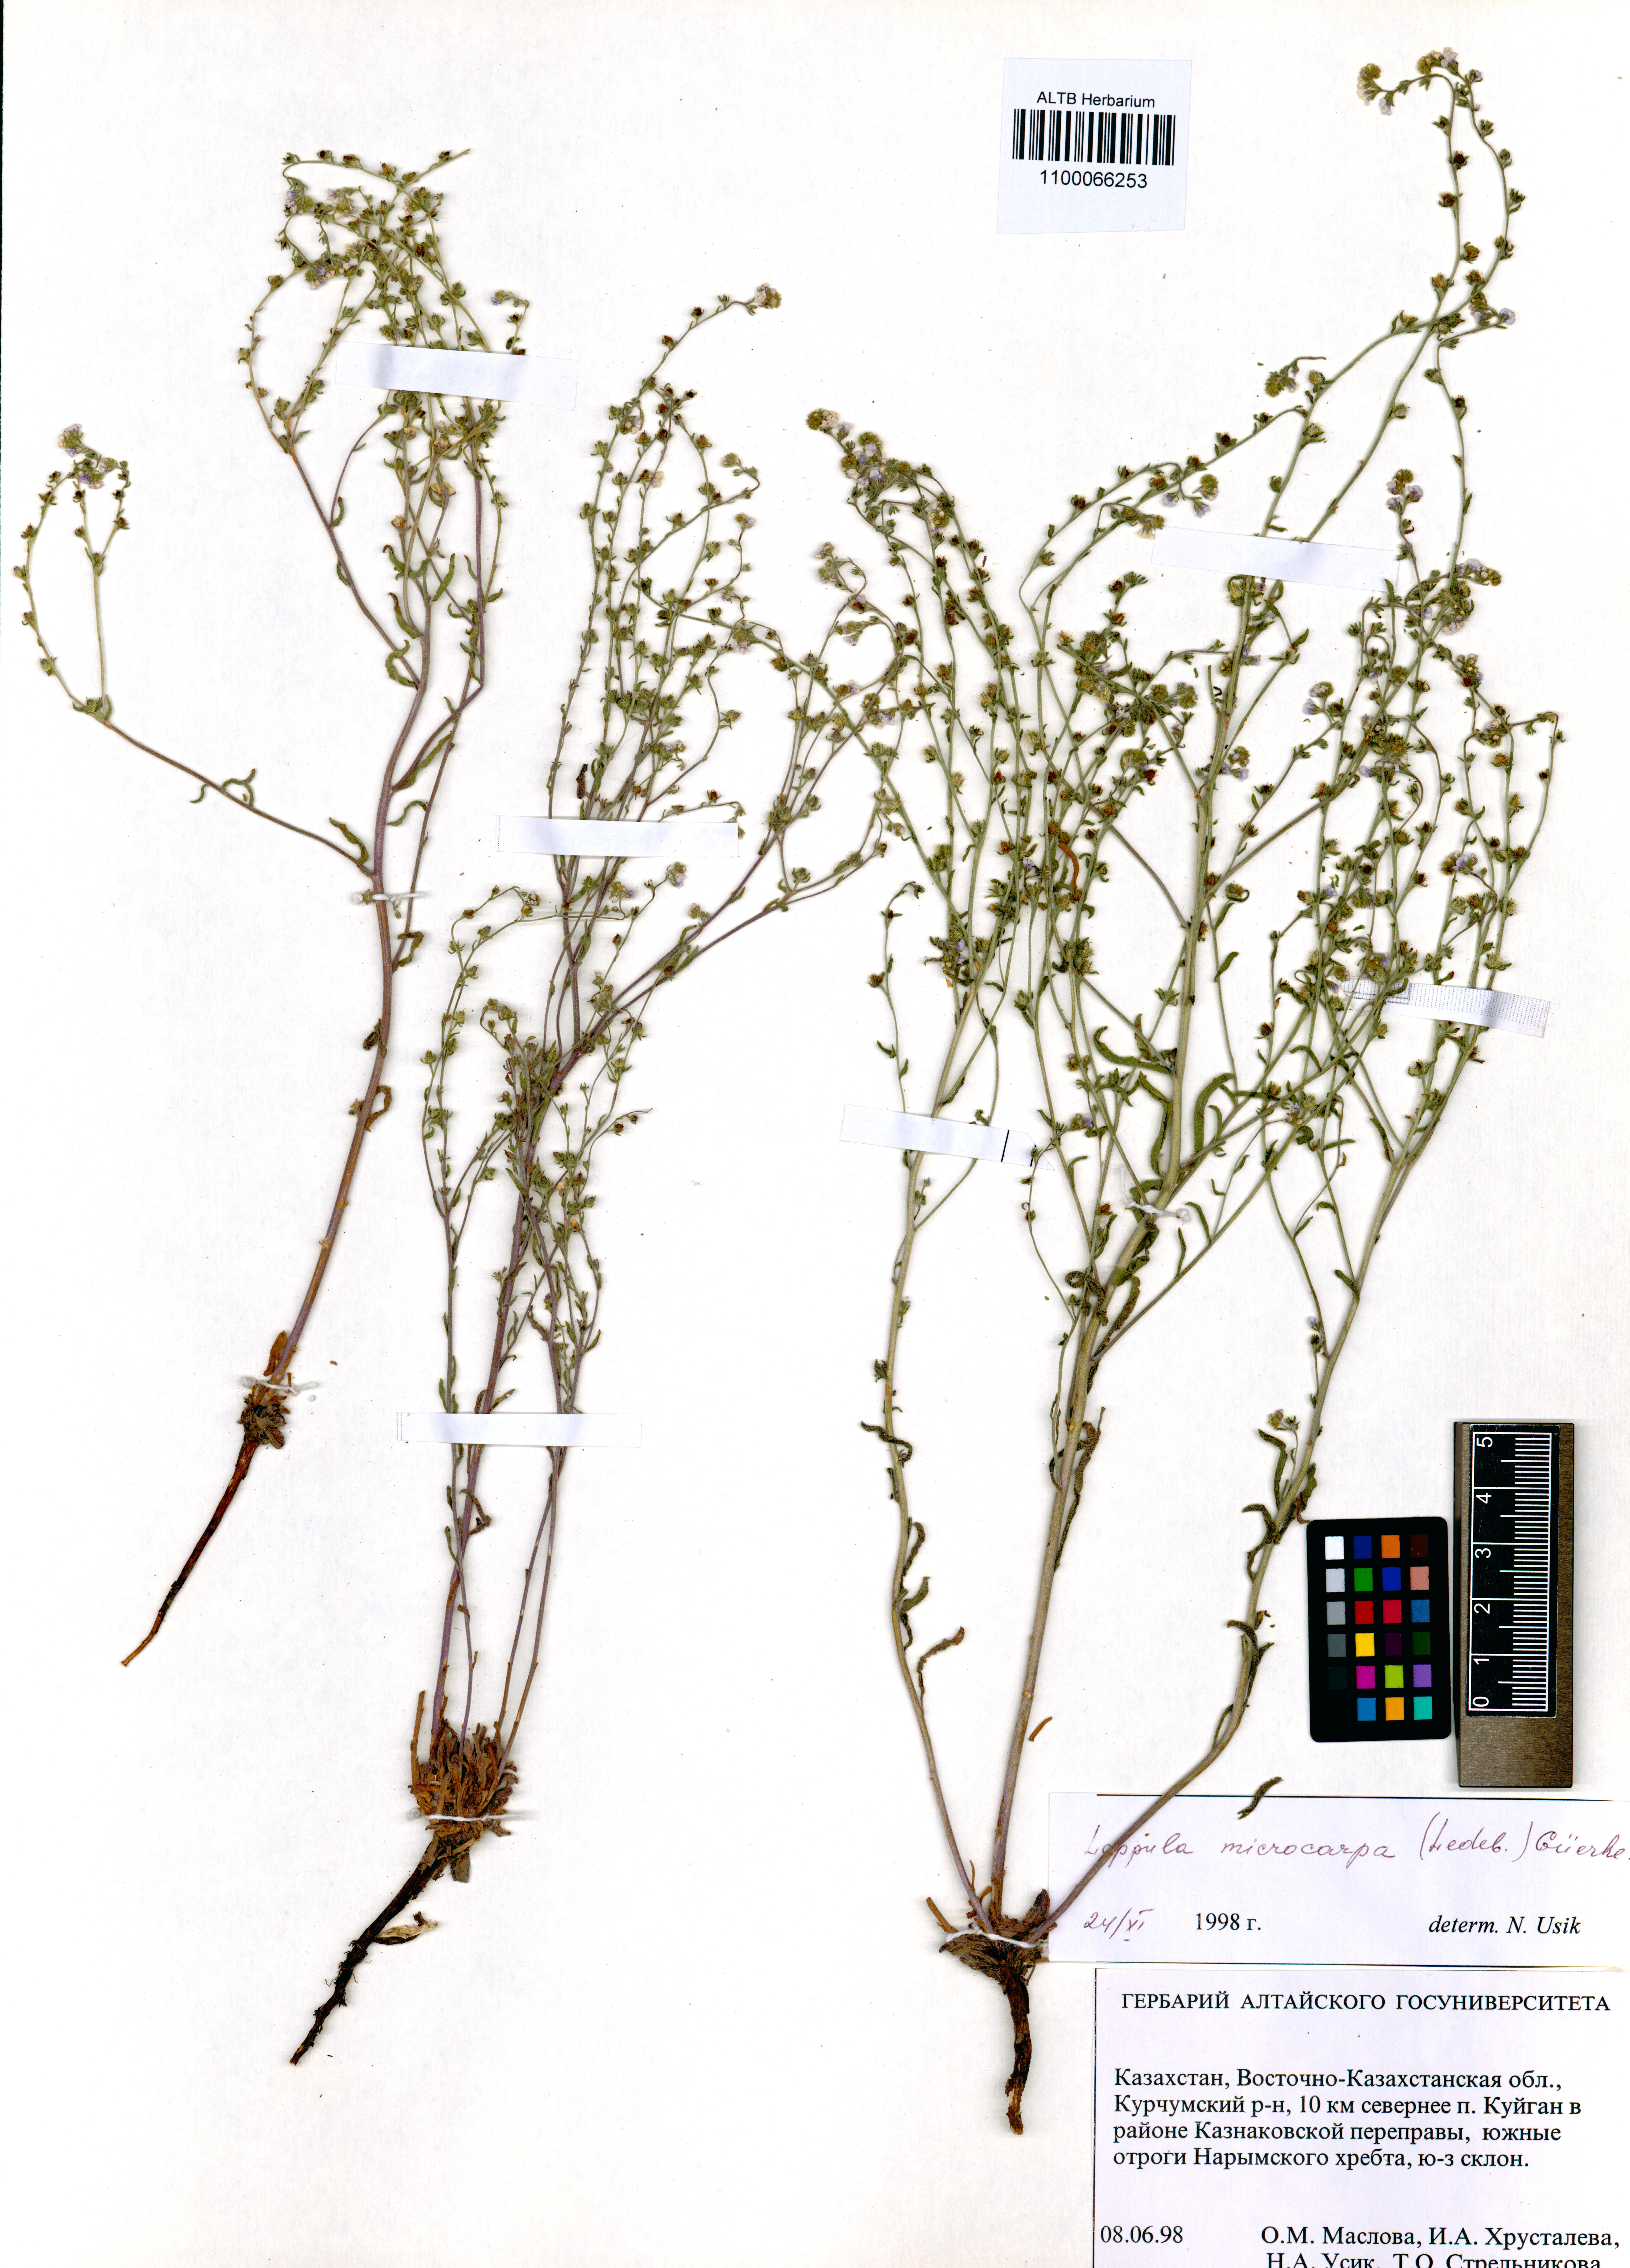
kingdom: Plantae
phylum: Tracheophyta
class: Magnoliopsida
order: Boraginales
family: Boraginaceae
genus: Lappula
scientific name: Lappula microcarpa
